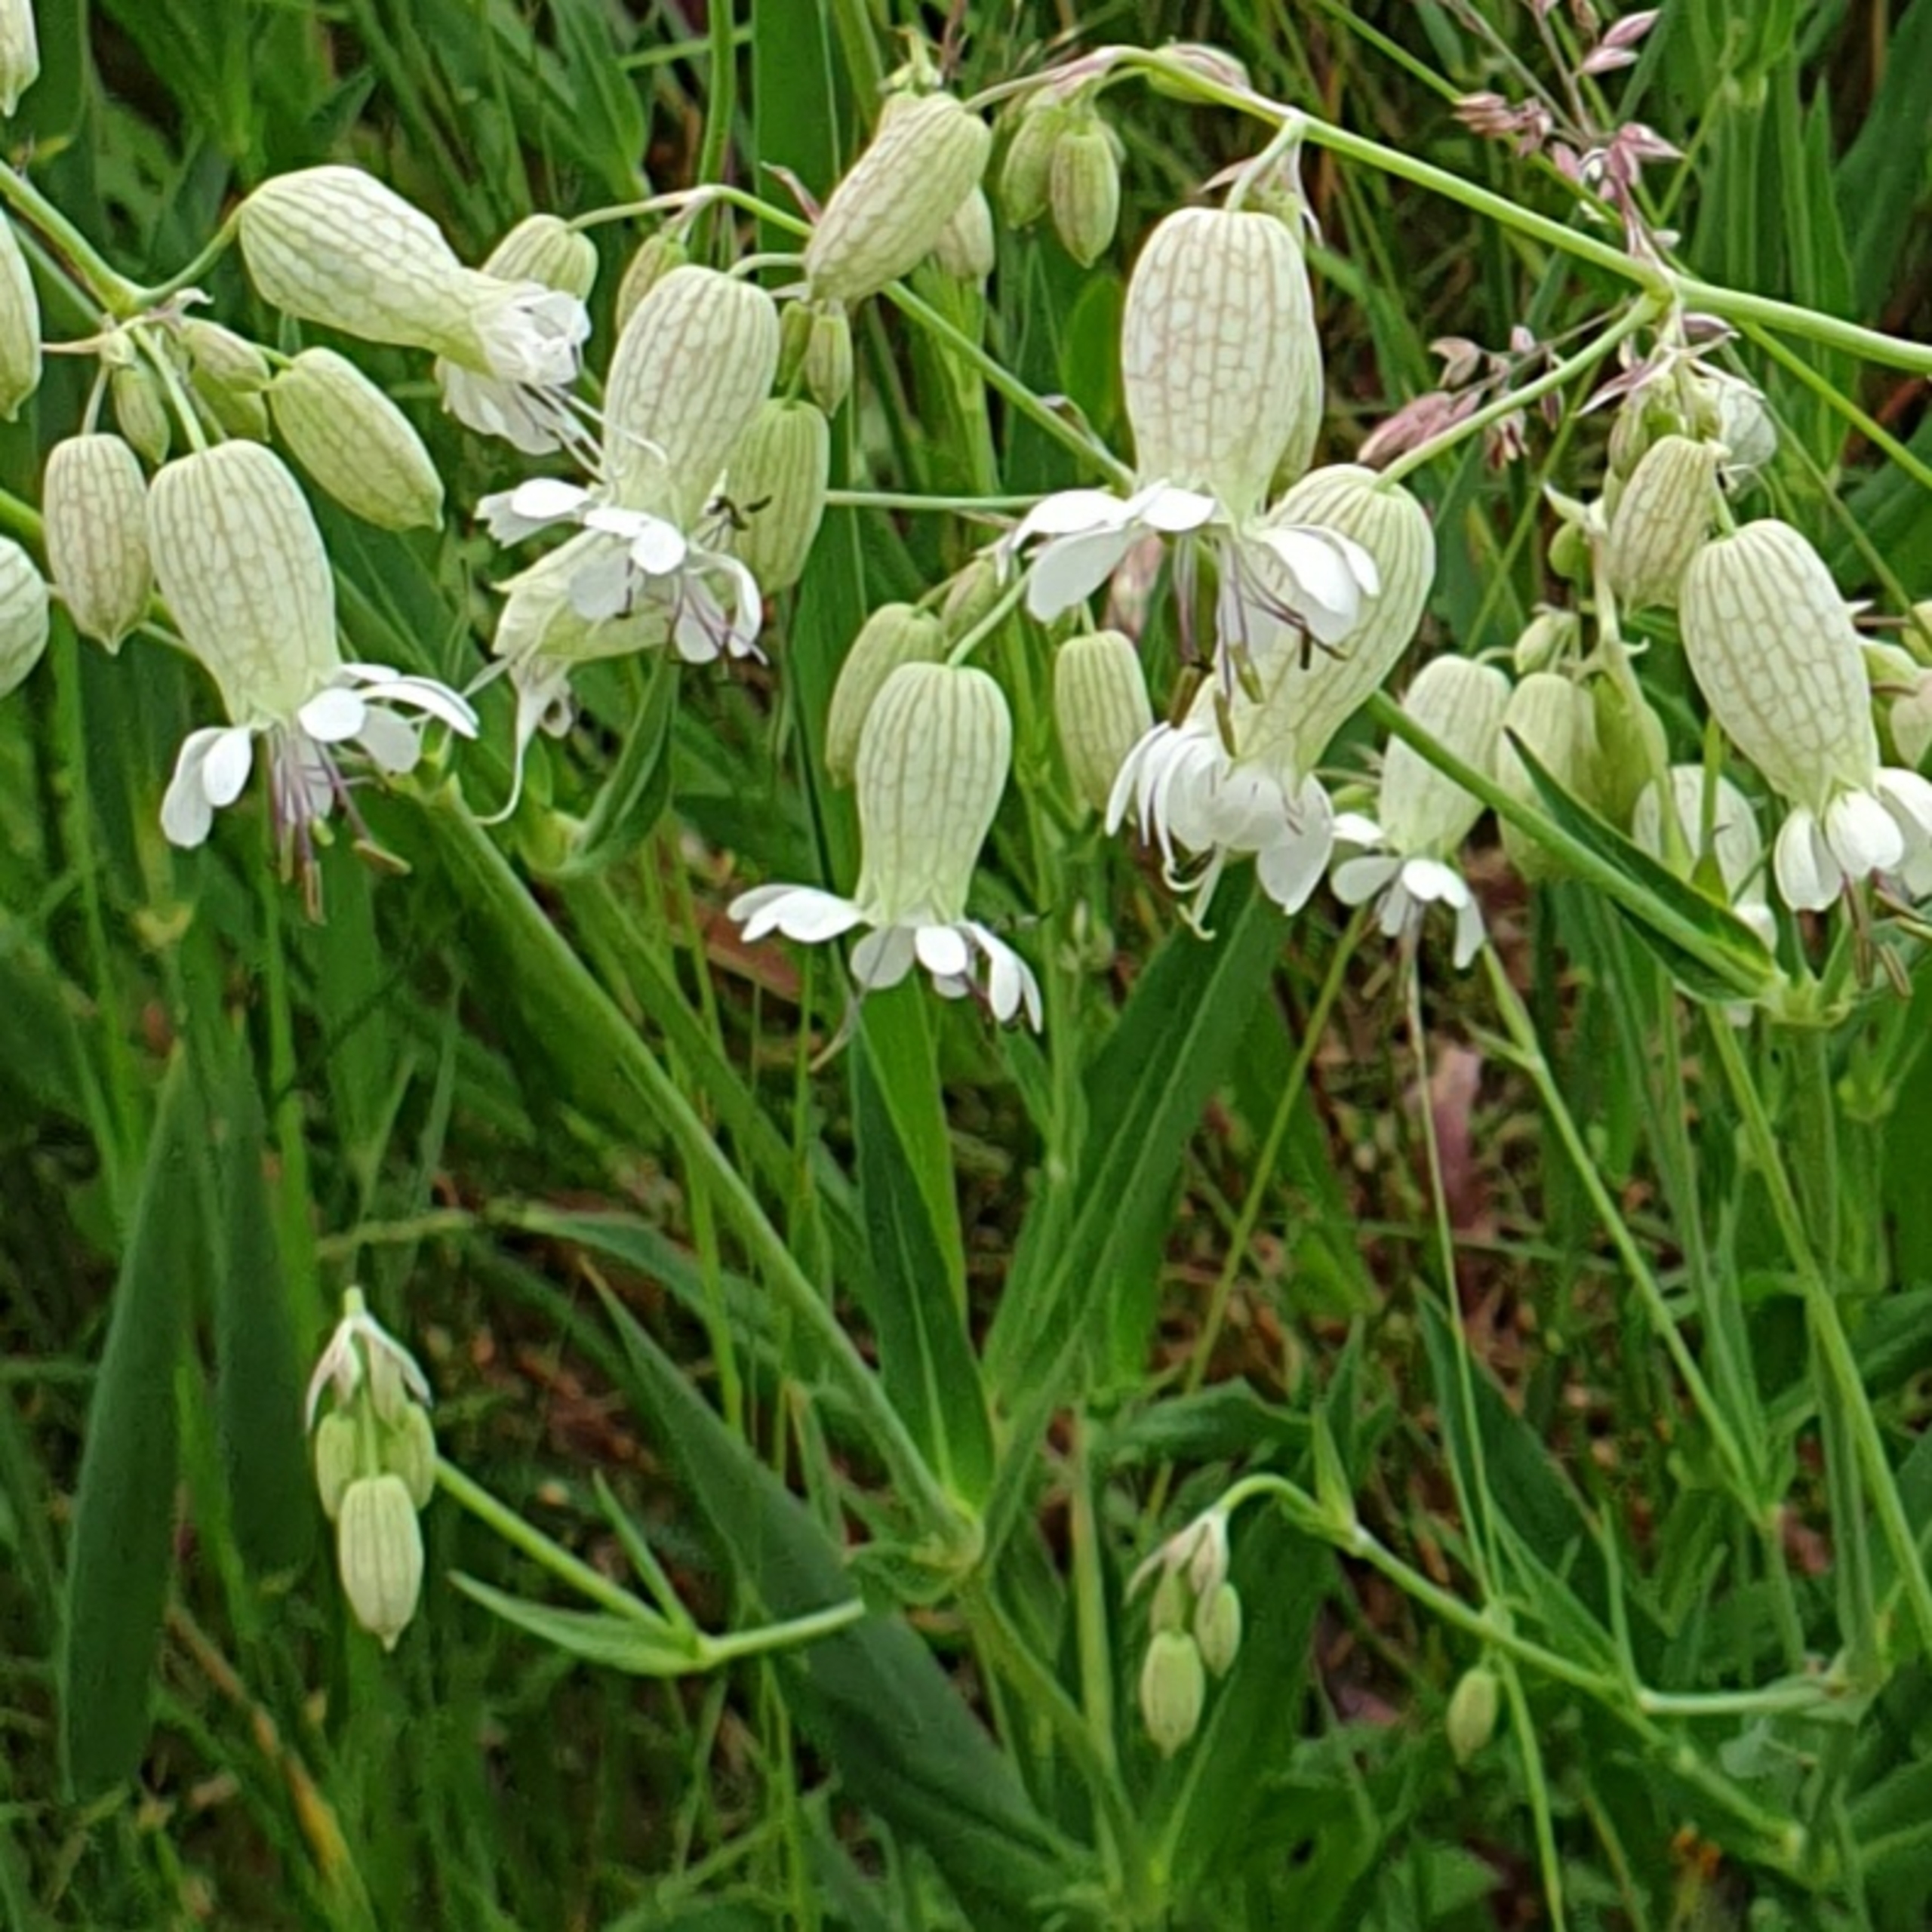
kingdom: Plantae
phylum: Tracheophyta
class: Magnoliopsida
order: Caryophyllales
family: Caryophyllaceae
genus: Silene
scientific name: Silene vulgaris
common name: Blæresmælde
